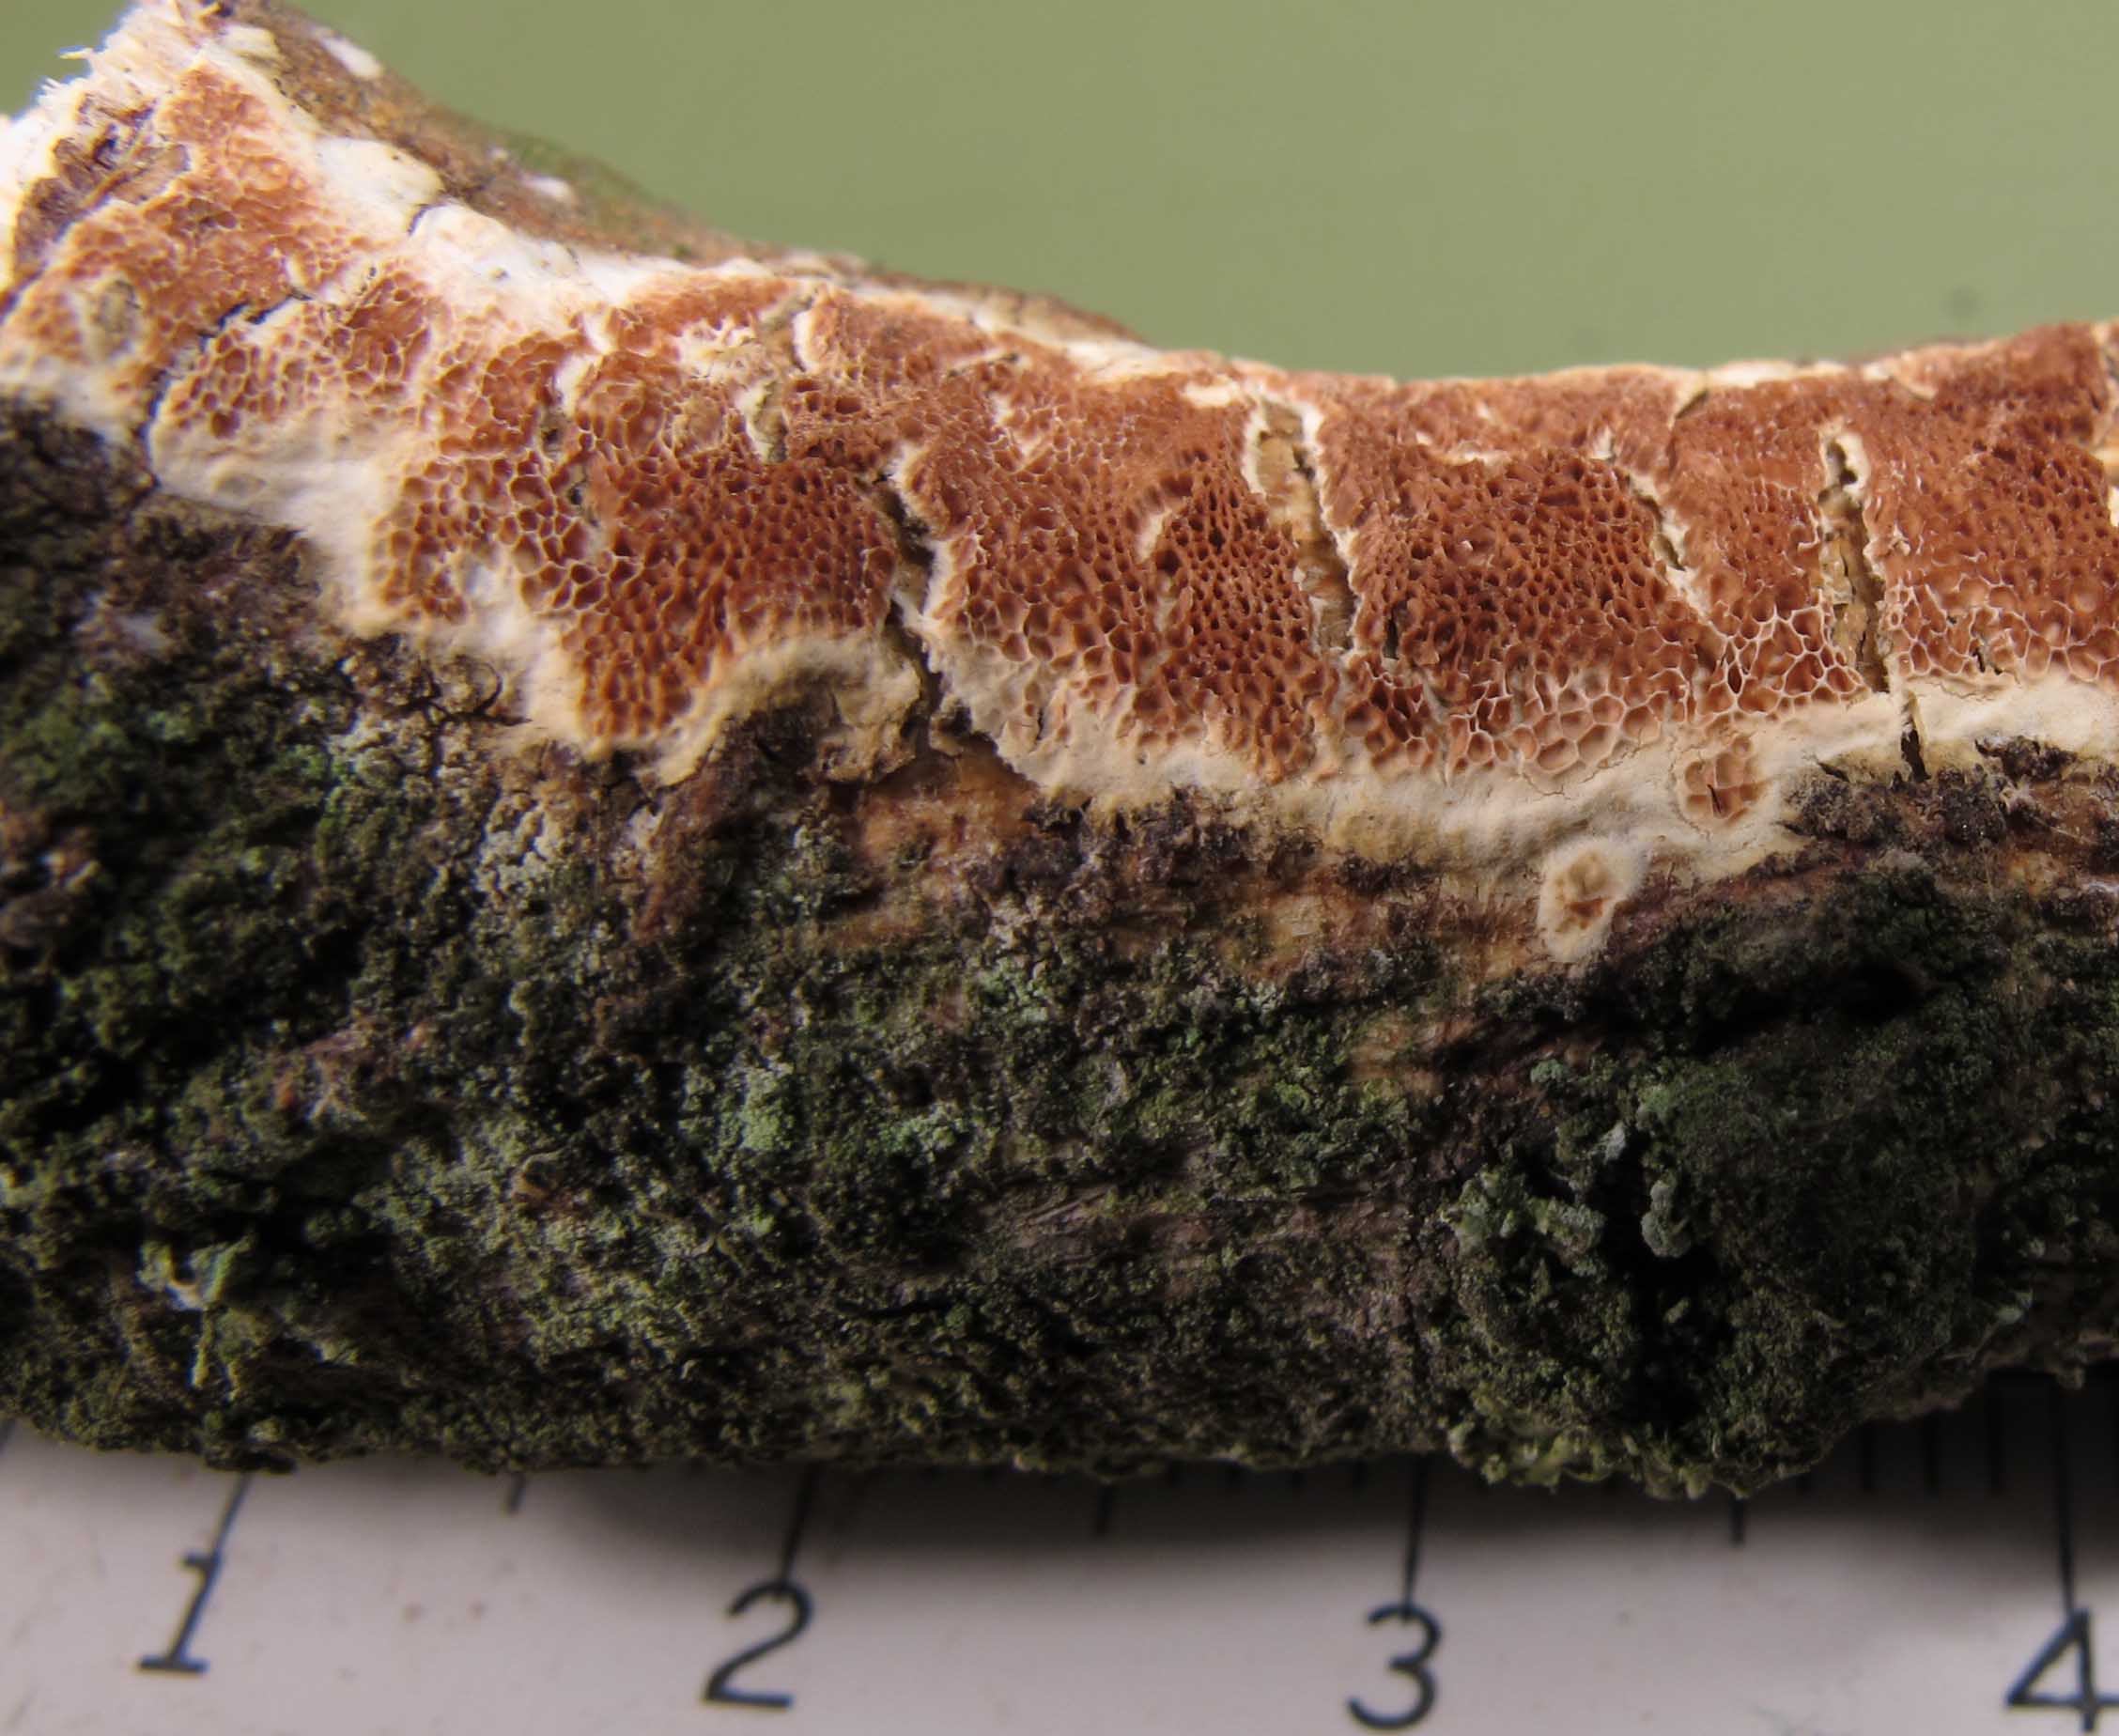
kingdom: Fungi
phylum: Basidiomycota
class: Agaricomycetes
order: Polyporales
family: Irpicaceae
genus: Resiniporus
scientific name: Resiniporus resinascens
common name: trist pastelporesvamp
